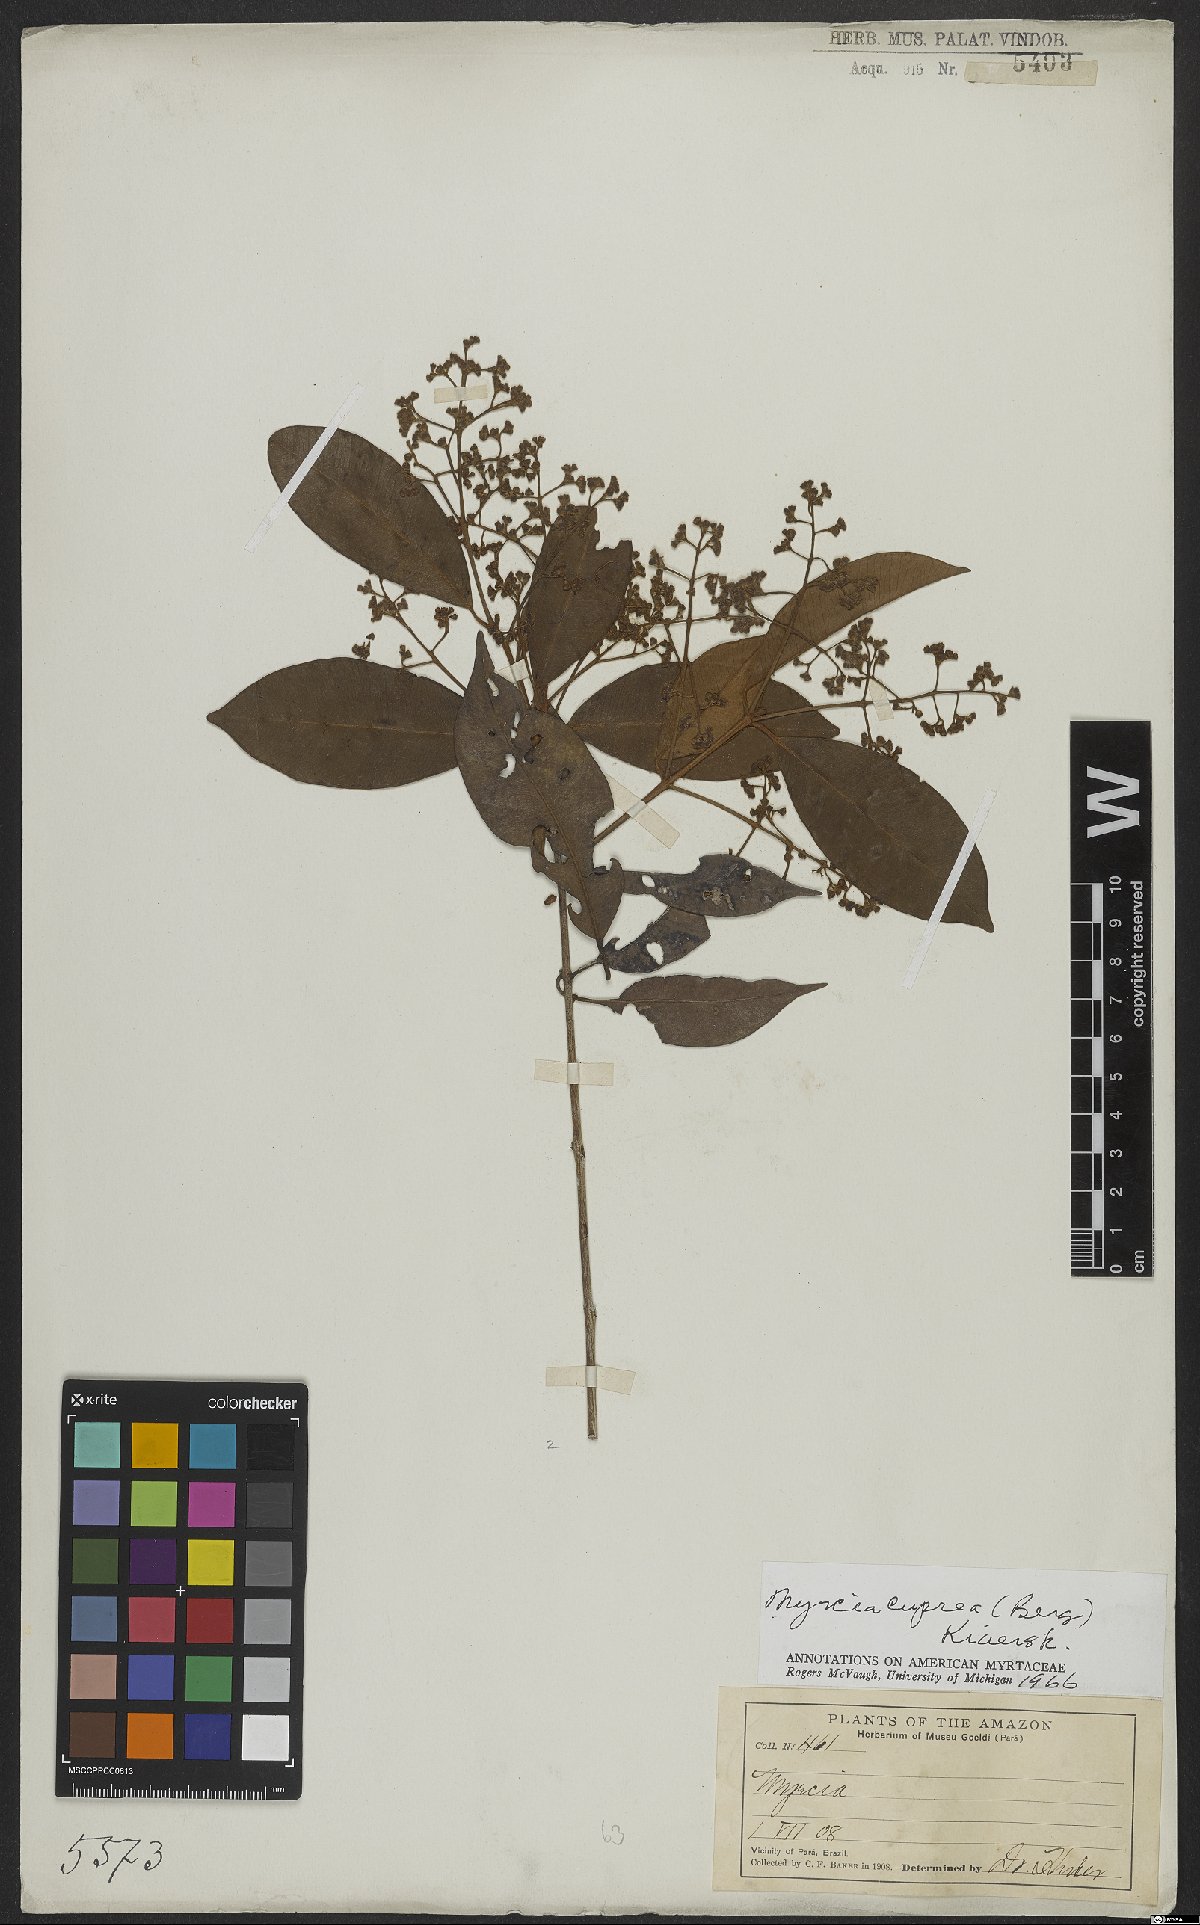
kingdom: Plantae
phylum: Tracheophyta
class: Magnoliopsida
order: Myrtales
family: Myrtaceae
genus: Myrcia
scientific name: Myrcia cuprea
